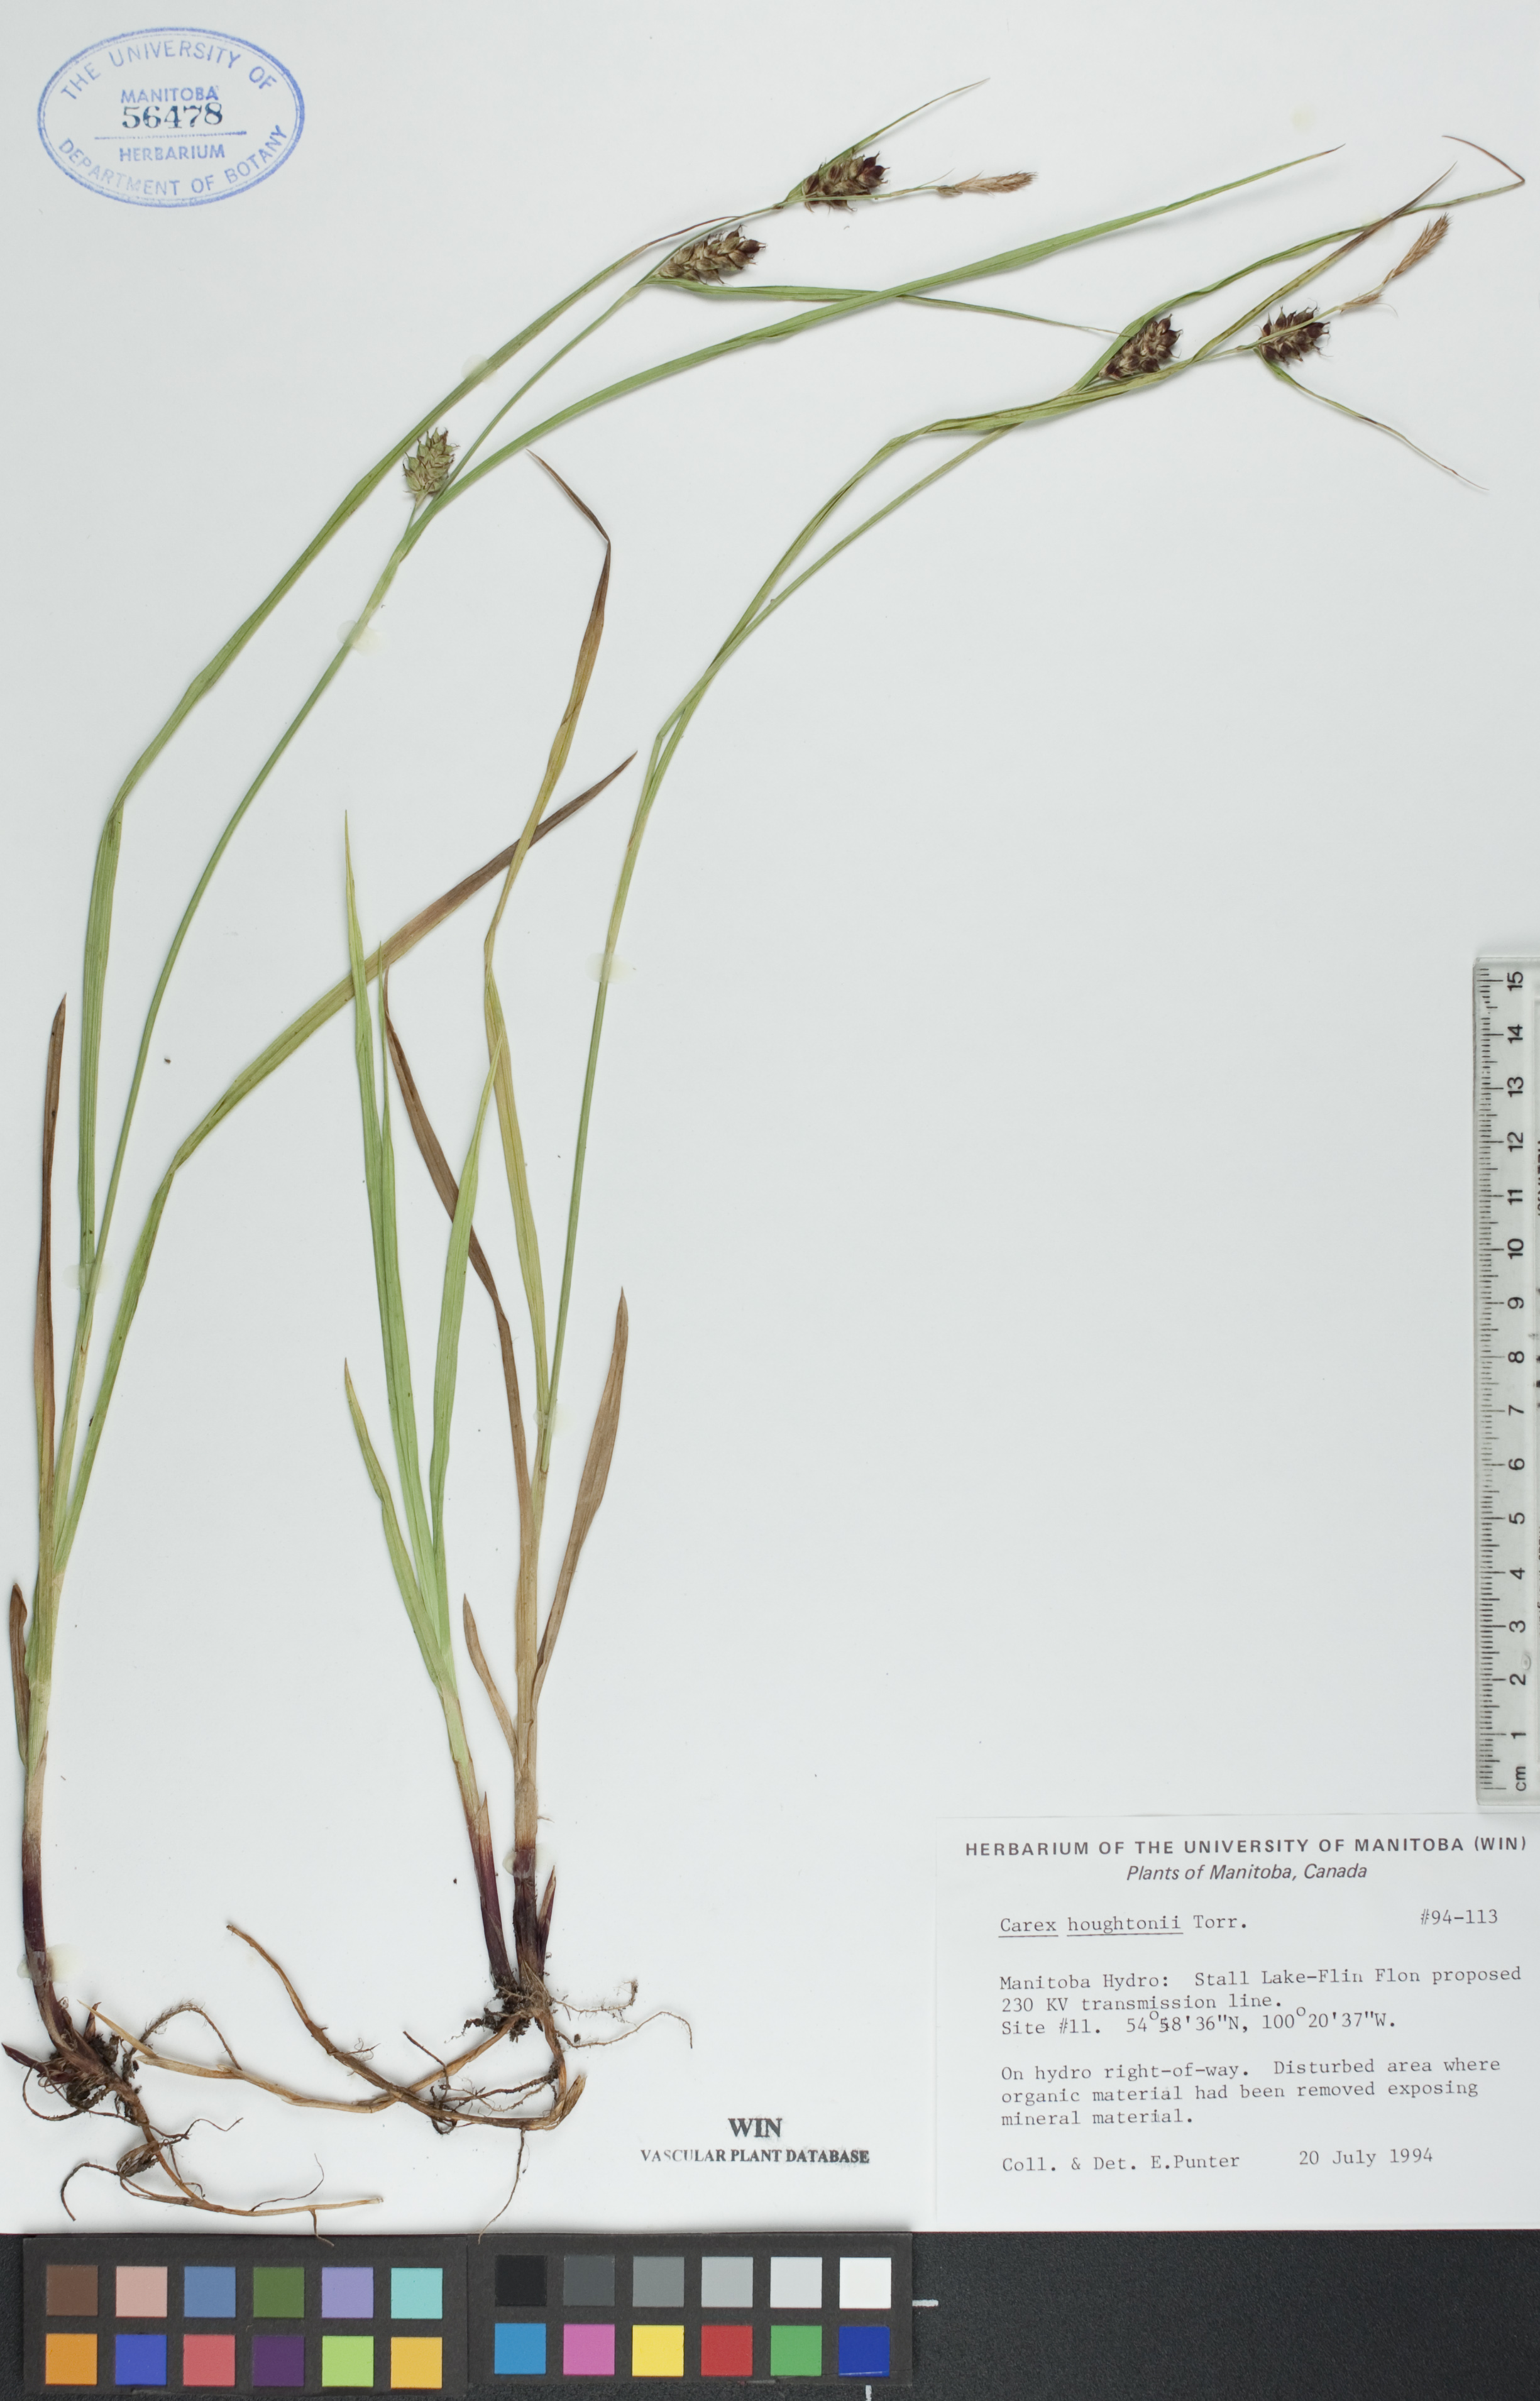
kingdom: Plantae
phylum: Tracheophyta
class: Liliopsida
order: Poales
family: Cyperaceae
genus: Carex
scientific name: Carex houghtoniana
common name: Houghton's sedge
